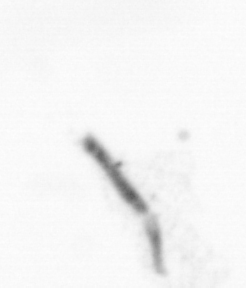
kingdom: Chromista
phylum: Ochrophyta
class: Bacillariophyceae
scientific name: Bacillariophyceae
